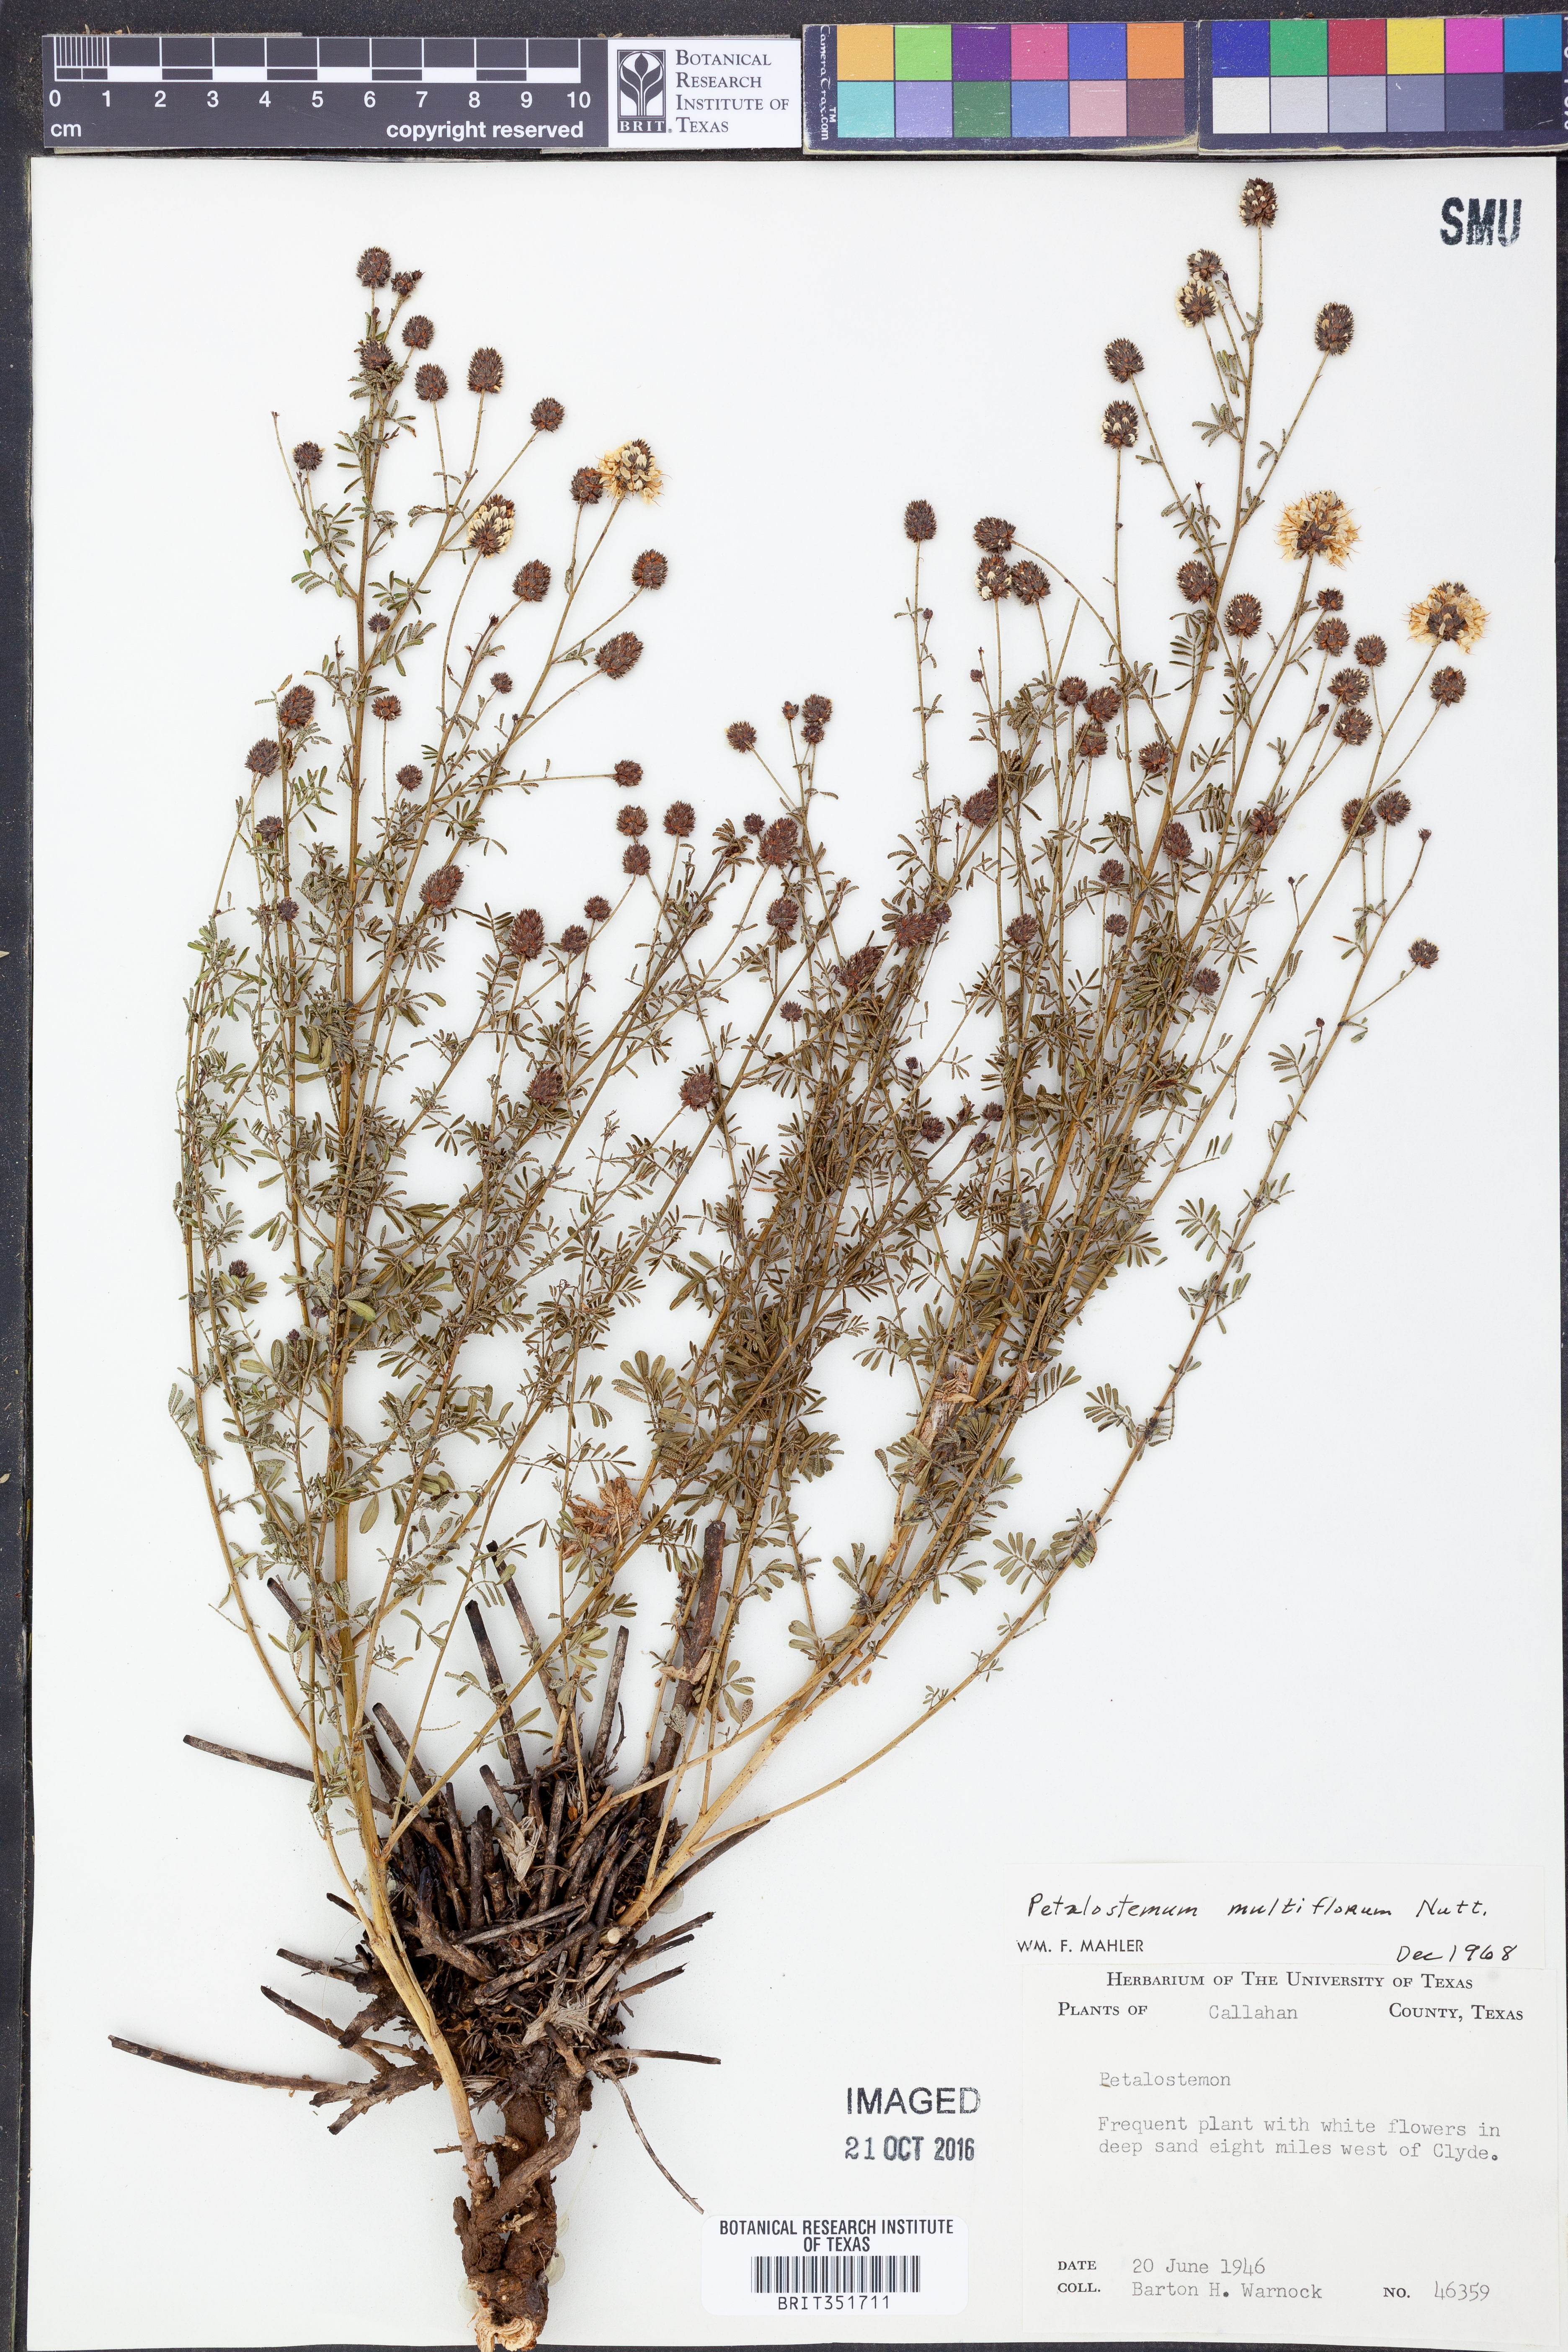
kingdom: Plantae
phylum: Tracheophyta
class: Magnoliopsida
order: Fabales
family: Fabaceae
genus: Dalea
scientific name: Dalea multiflora
